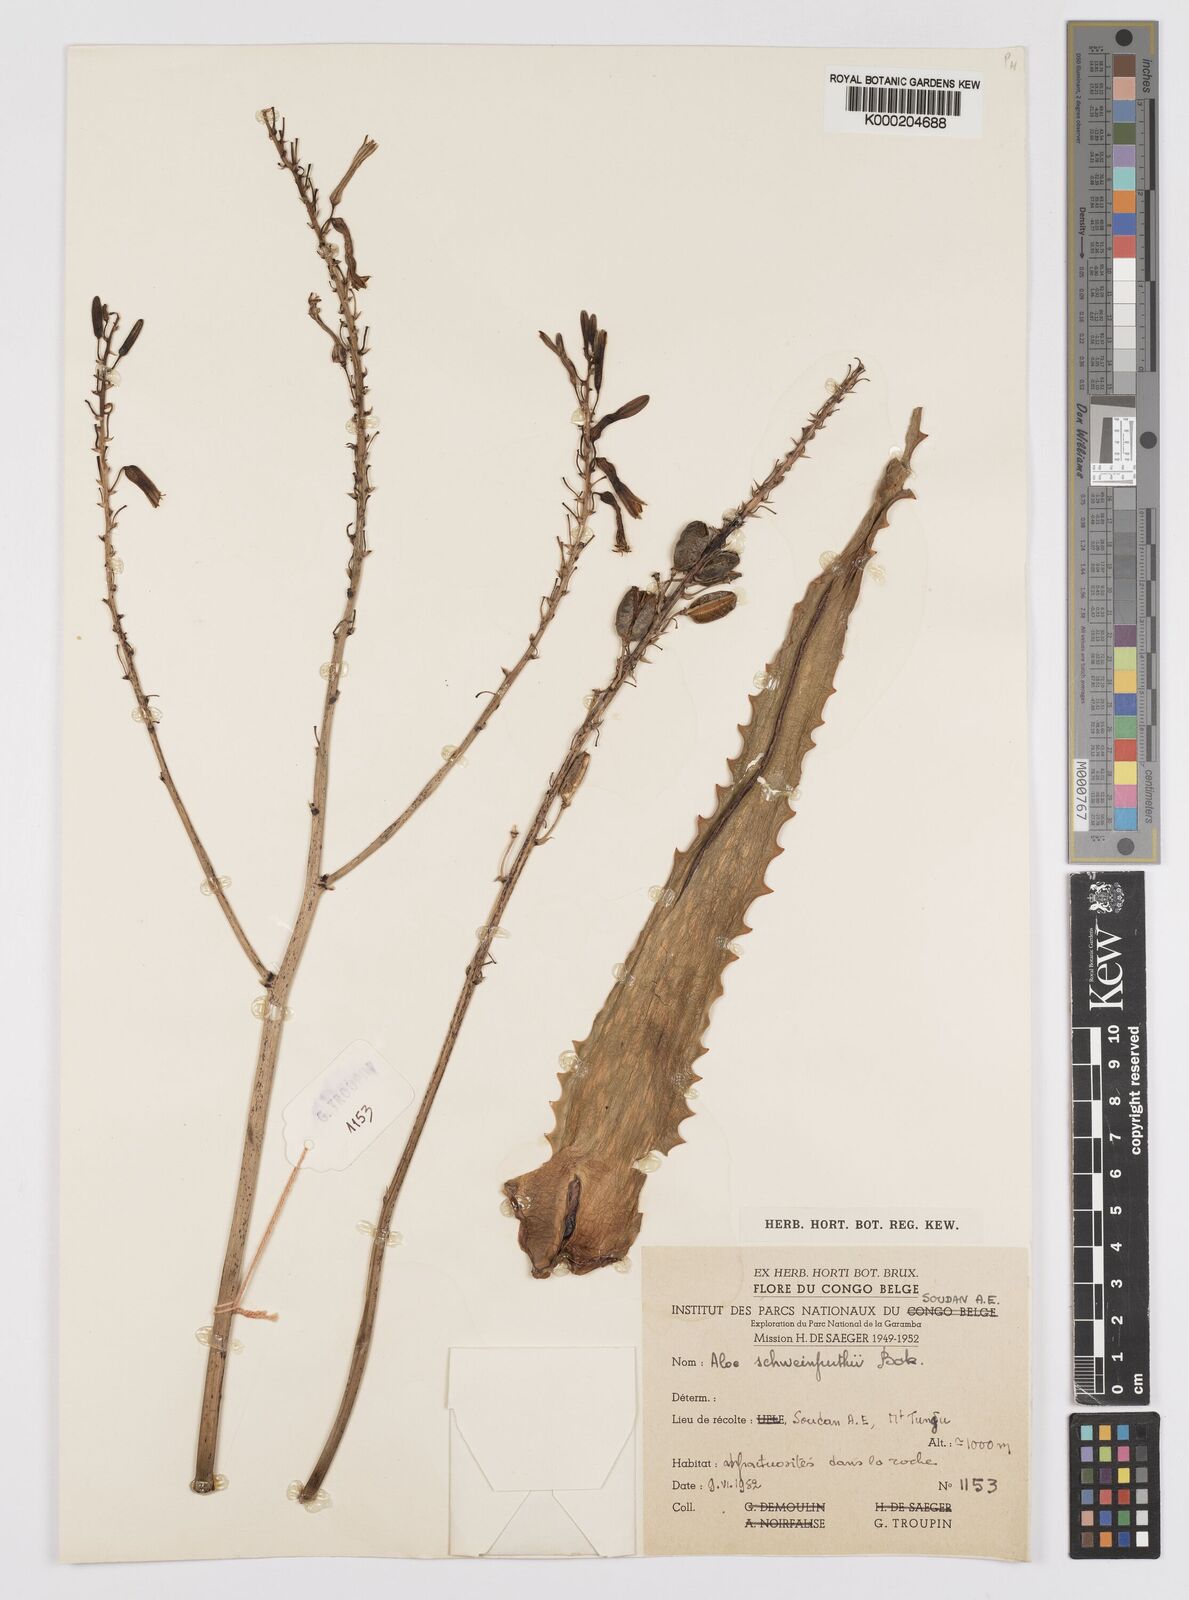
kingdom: Plantae
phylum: Tracheophyta
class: Liliopsida
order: Asparagales
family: Asphodelaceae
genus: Aloe
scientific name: Aloe schweinfurthii
